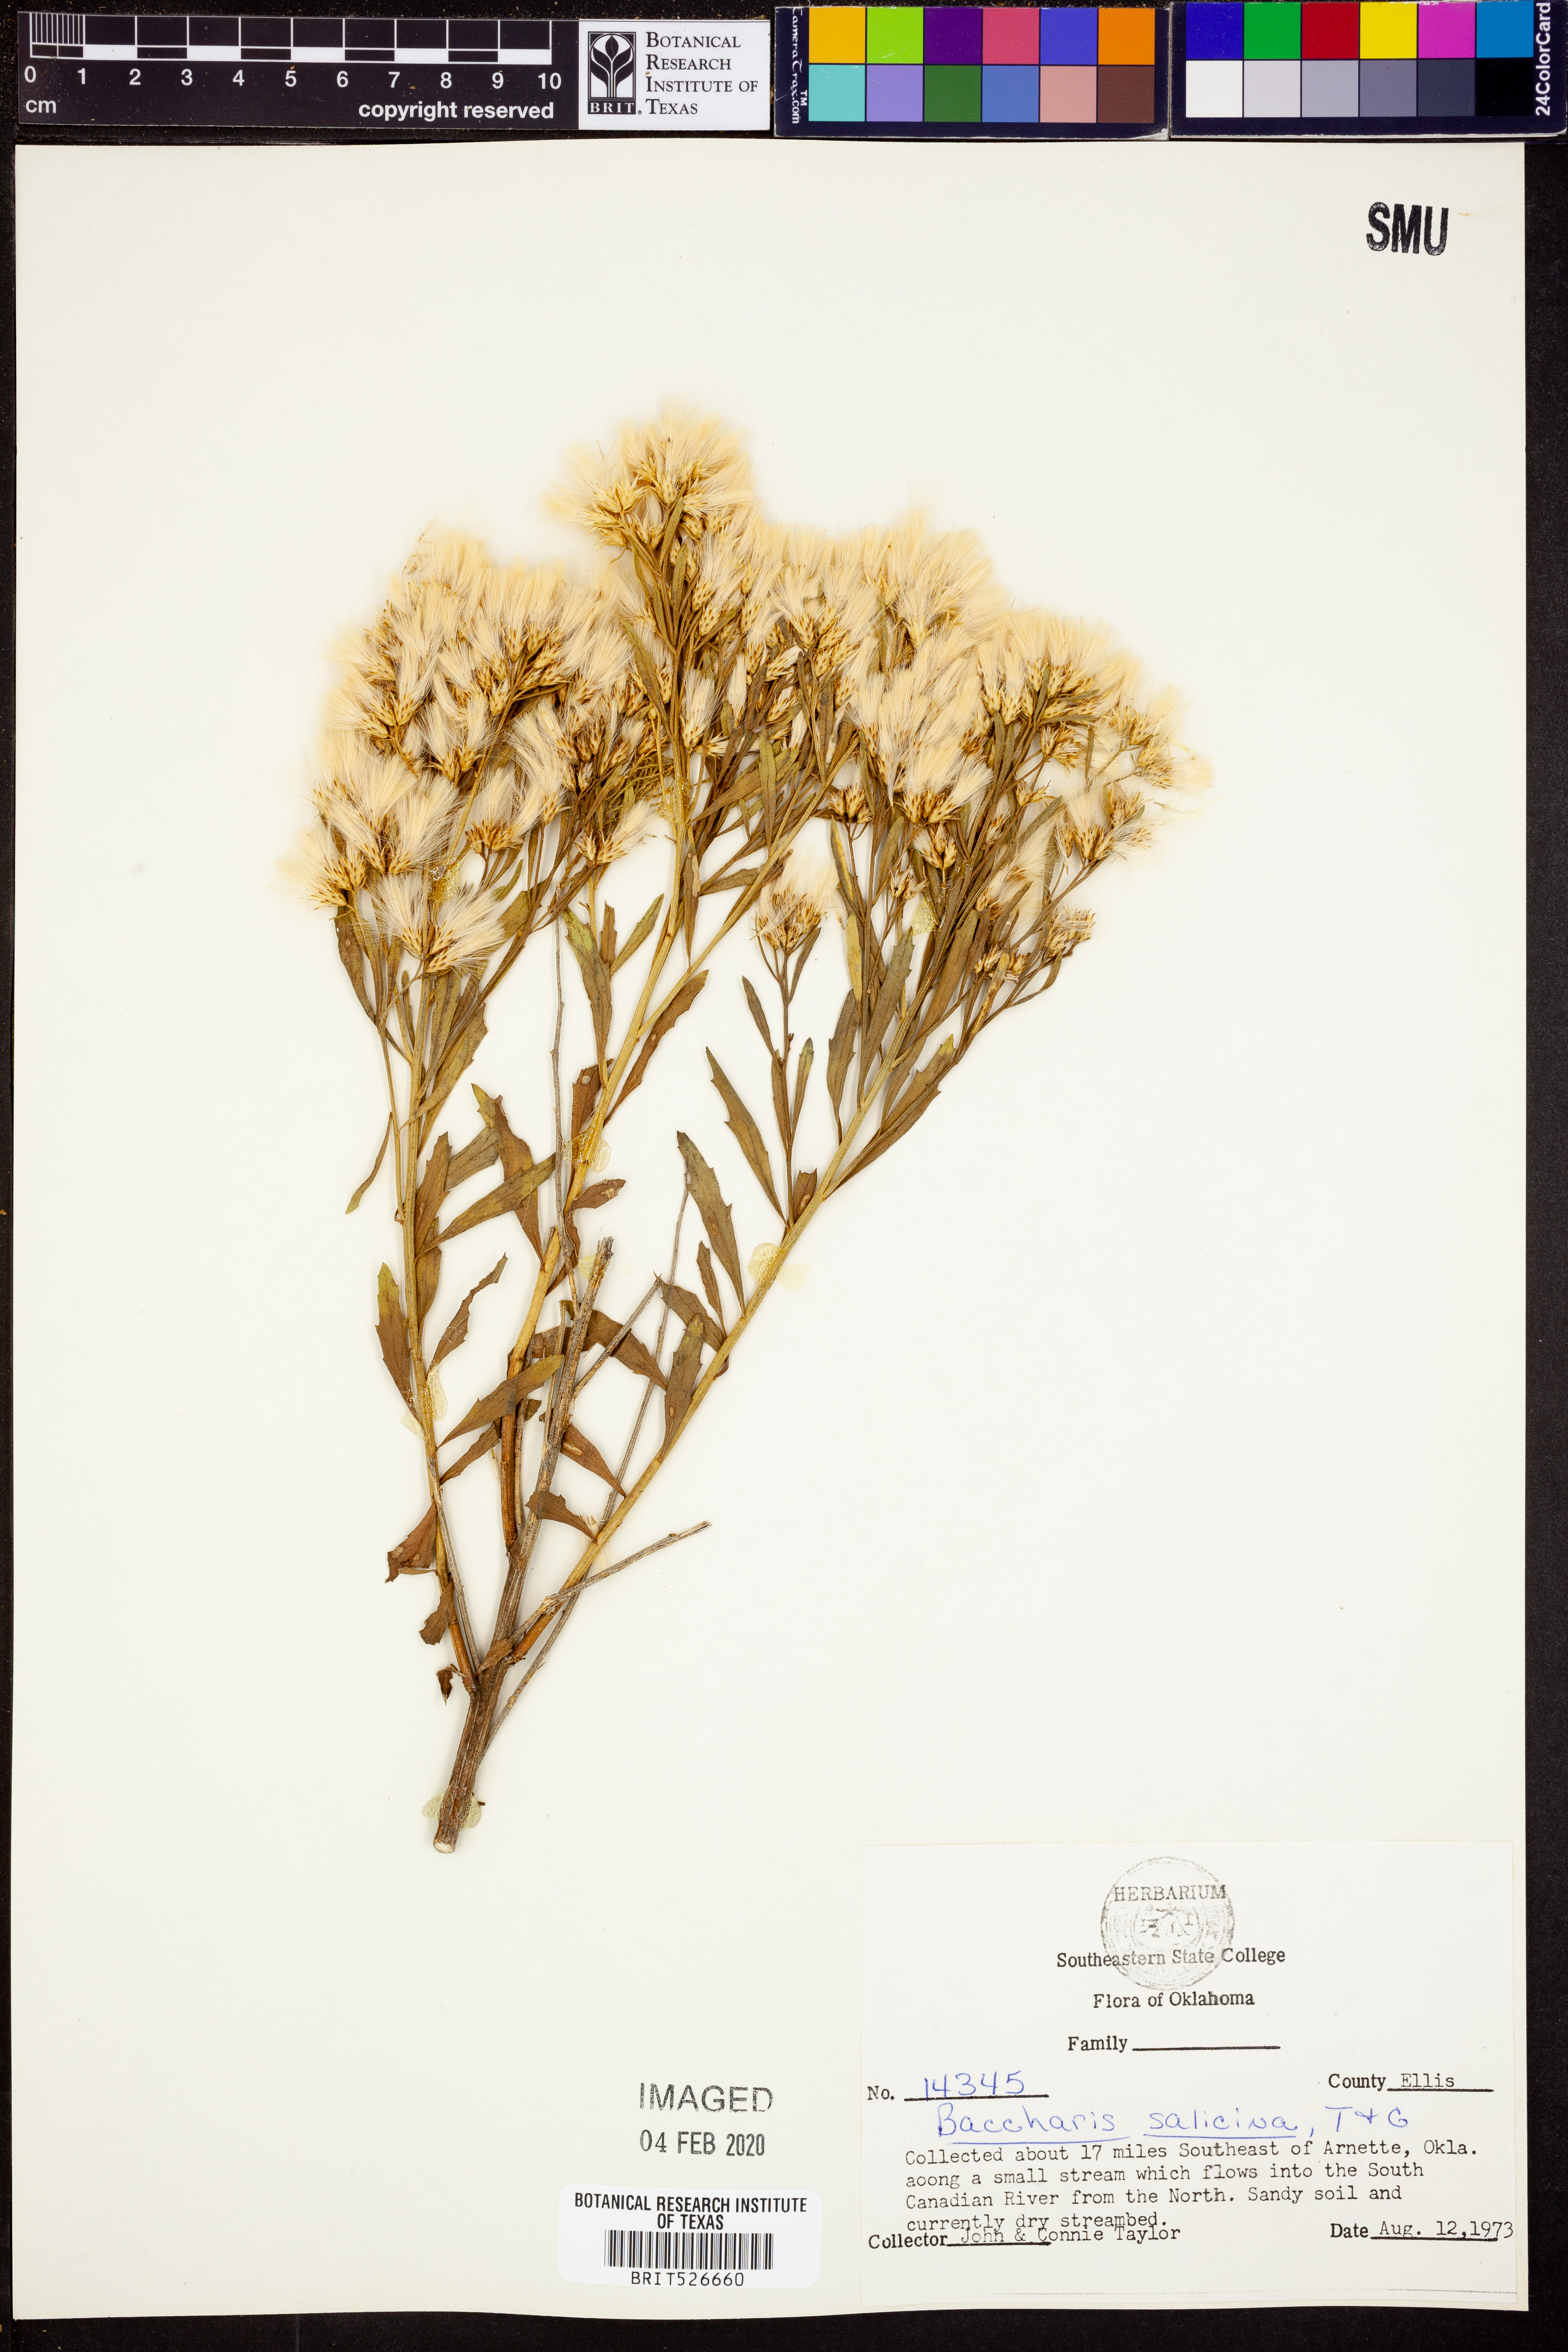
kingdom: Plantae
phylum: Tracheophyta
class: Magnoliopsida
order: Asterales
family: Asteraceae
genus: Baccharis
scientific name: Baccharis salicina
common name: Willow baccharis
